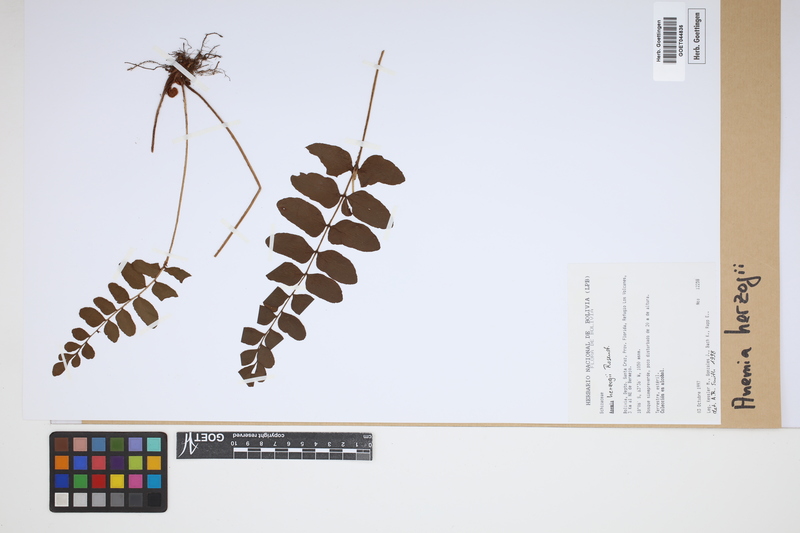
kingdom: Plantae
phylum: Tracheophyta
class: Polypodiopsida
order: Schizaeales
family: Anemiaceae
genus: Anemia
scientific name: Anemia herzogii
